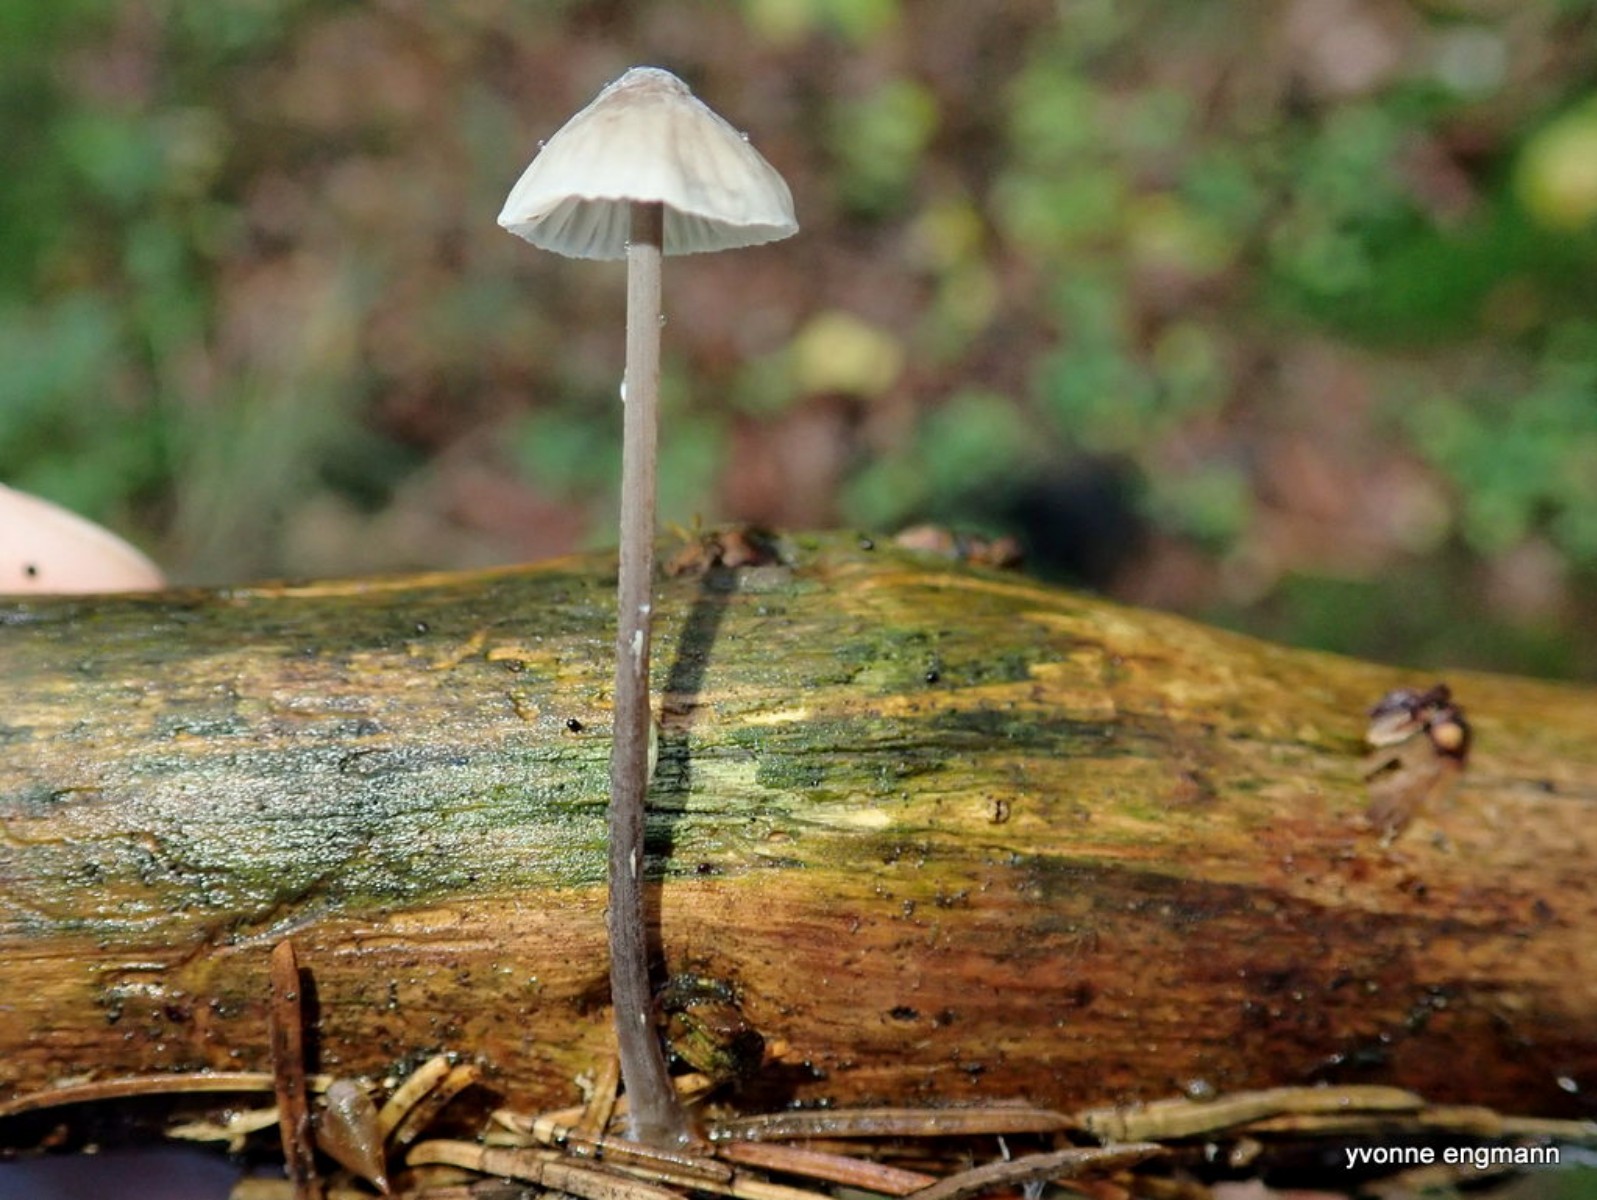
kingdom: Fungi
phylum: Basidiomycota
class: Agaricomycetes
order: Agaricales
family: Mycenaceae
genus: Mycena
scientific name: Mycena vitilis
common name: blankstokket huesvamp
